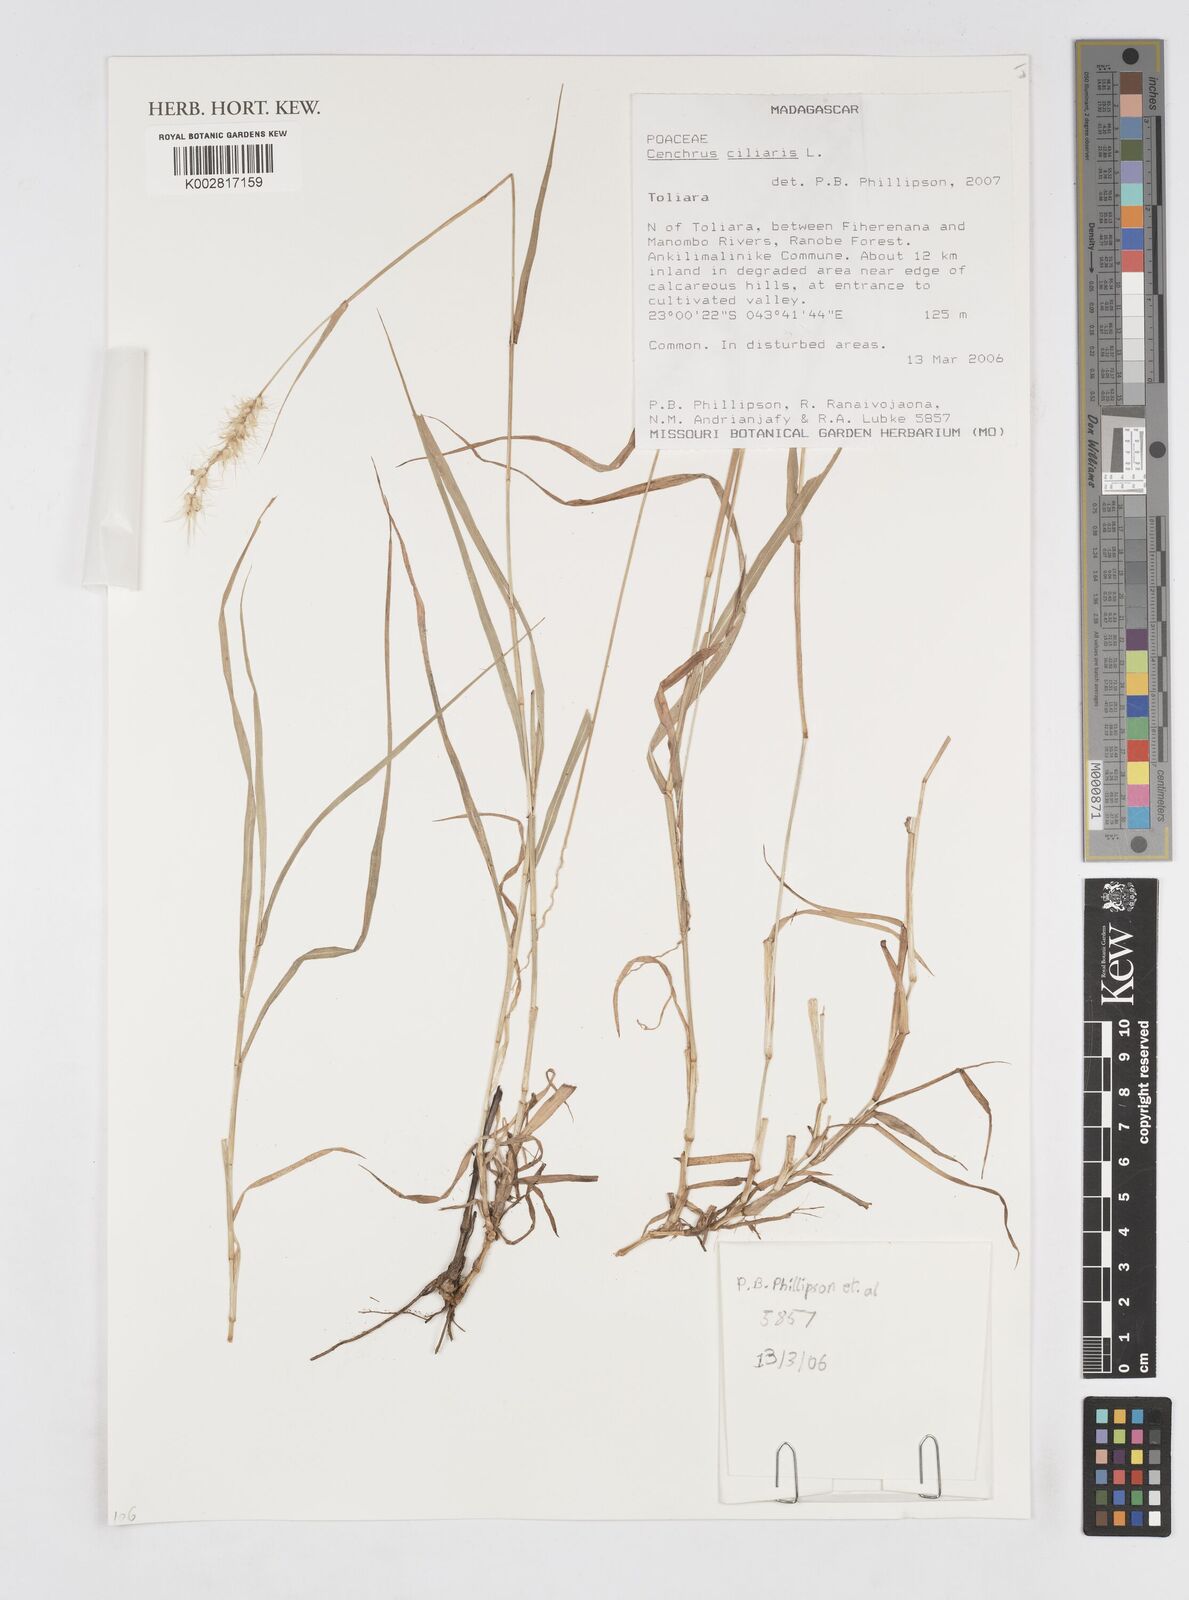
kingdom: Plantae
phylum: Tracheophyta
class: Liliopsida
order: Poales
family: Poaceae
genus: Cenchrus
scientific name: Cenchrus ciliaris
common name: Buffelgrass
